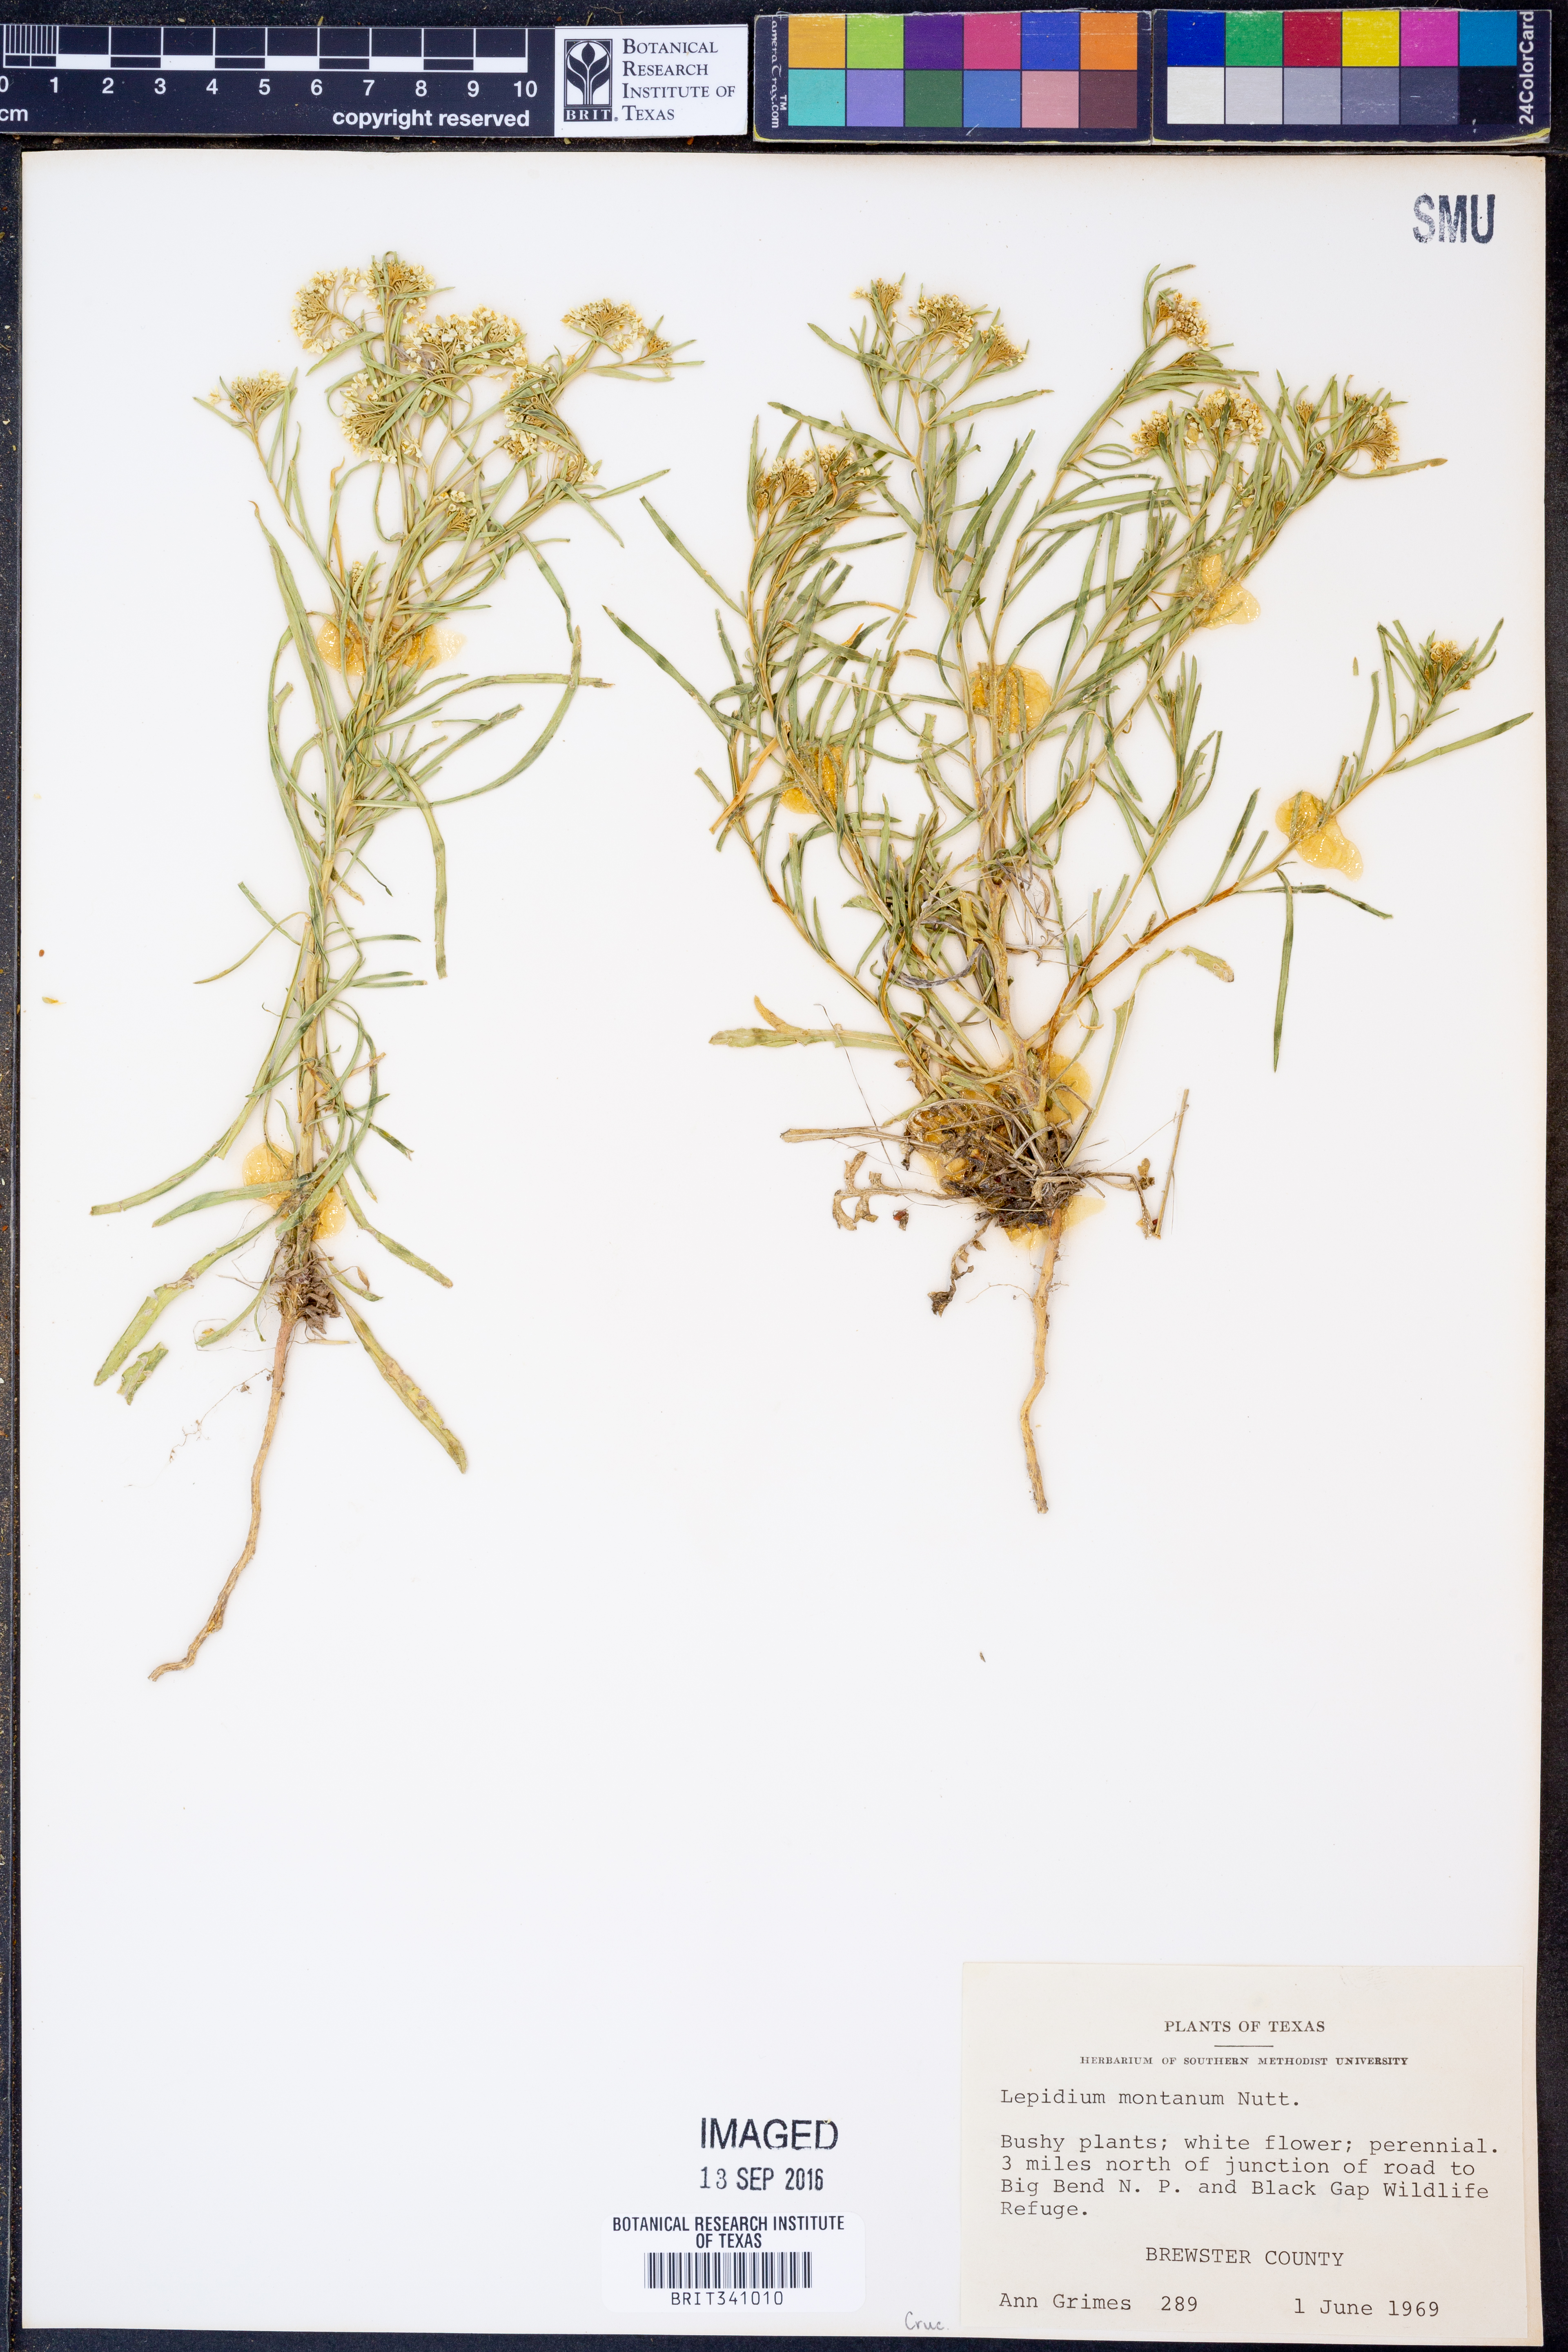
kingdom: Plantae
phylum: Tracheophyta
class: Magnoliopsida
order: Brassicales
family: Brassicaceae
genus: Lepidium
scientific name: Lepidium montanum
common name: Mountain pepperplant
